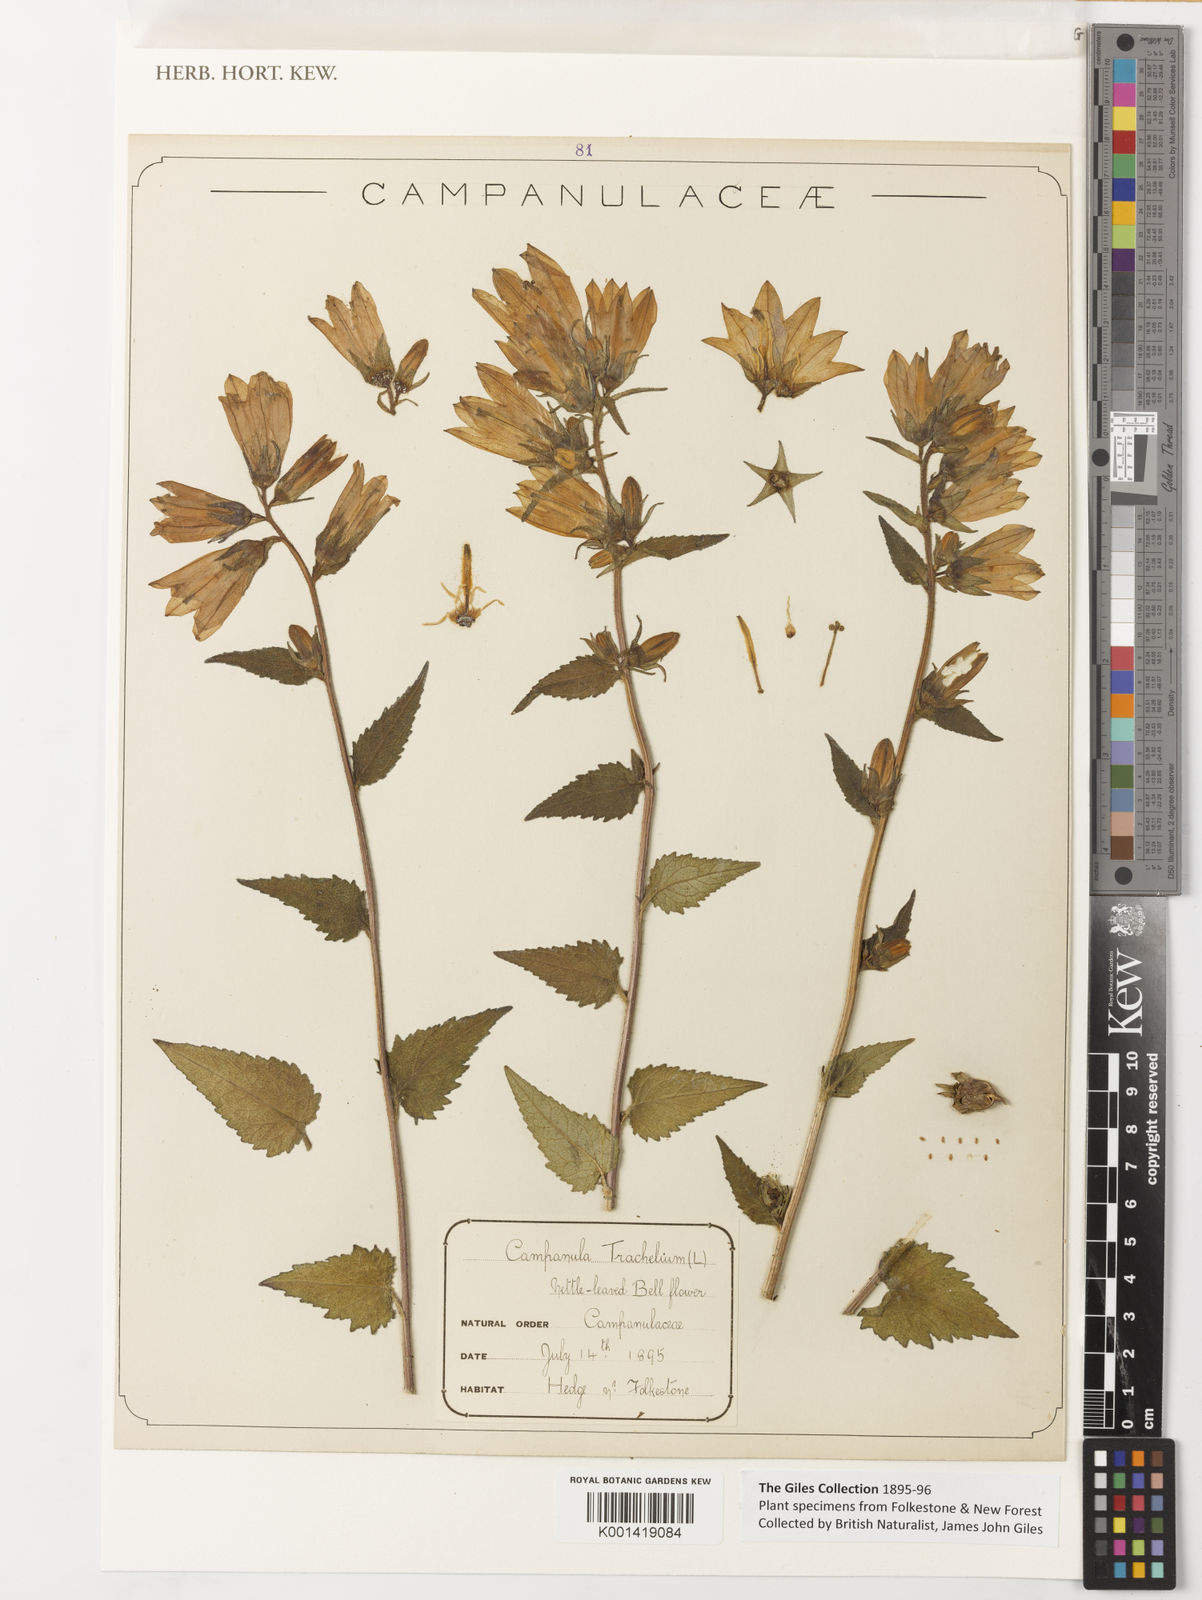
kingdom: Plantae
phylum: Tracheophyta
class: Magnoliopsida
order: Asterales
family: Campanulaceae
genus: Campanula
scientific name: Campanula trachelium
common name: Nettle-leaved bellflower
